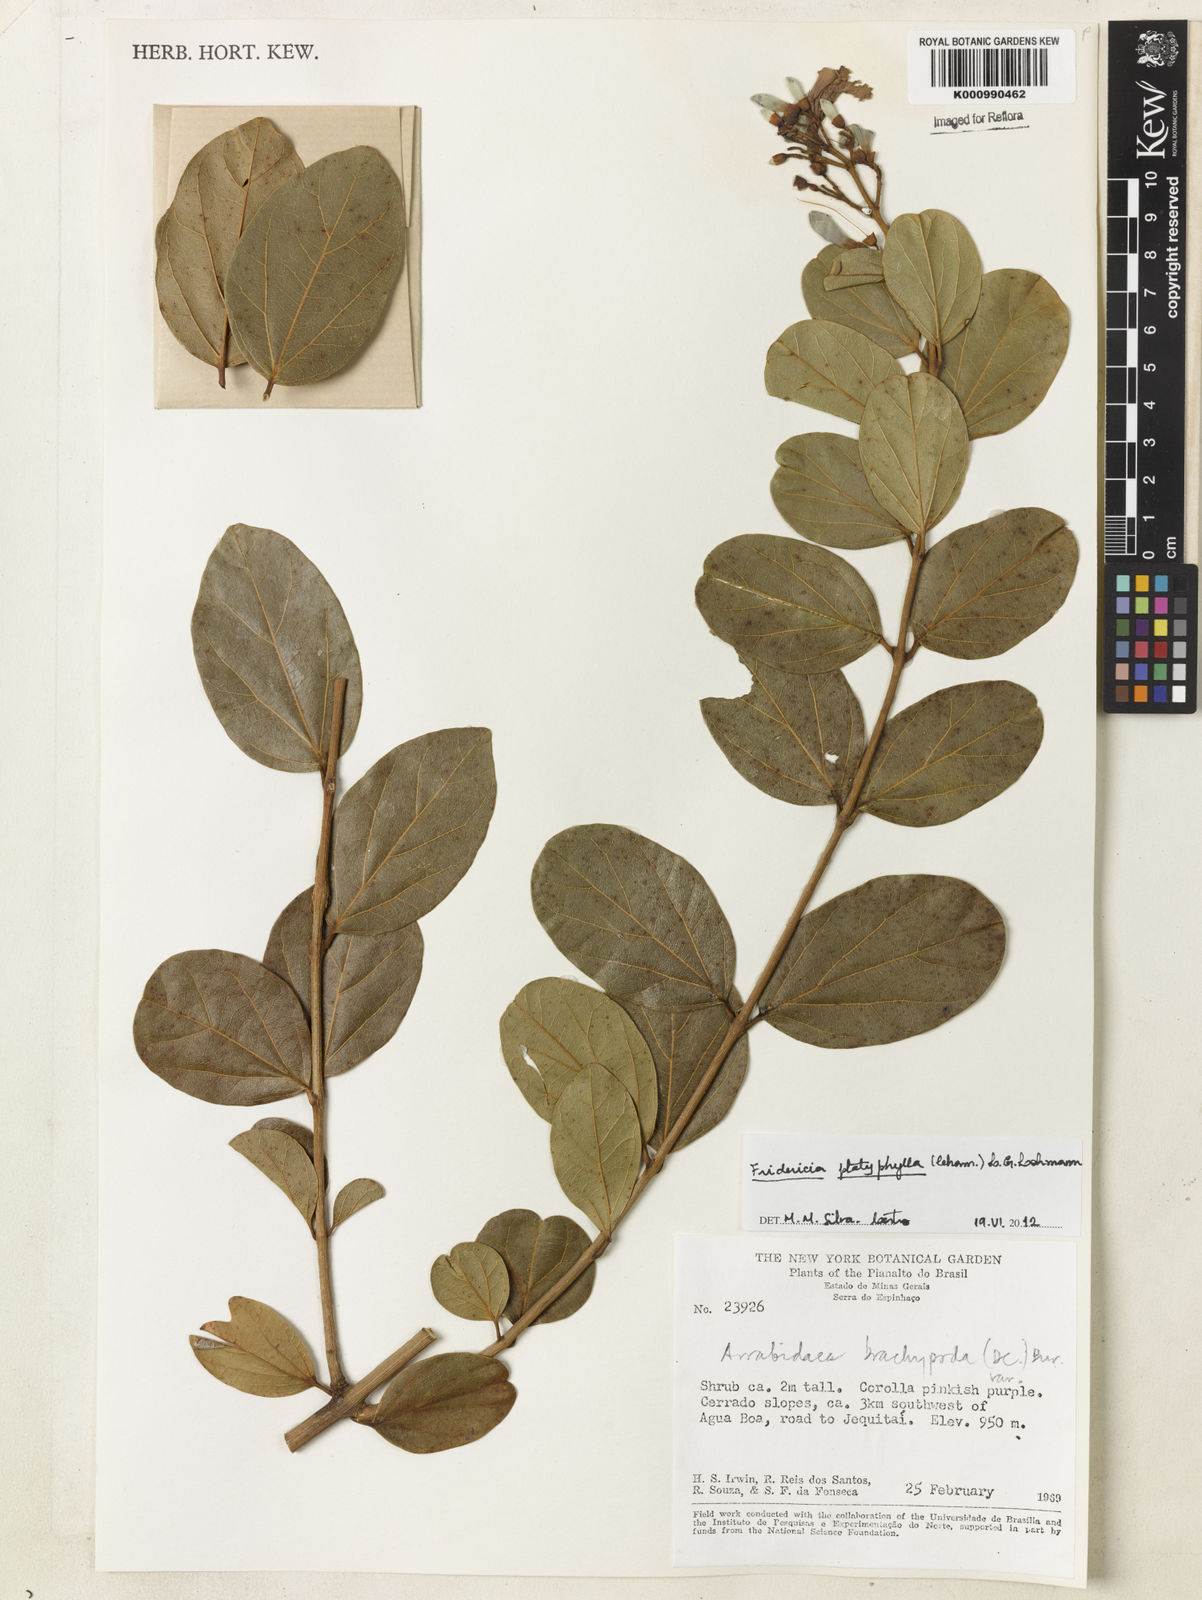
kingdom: Plantae
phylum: Tracheophyta
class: Magnoliopsida
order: Lamiales
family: Bignoniaceae
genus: Fridericia
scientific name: Fridericia platyphylla
